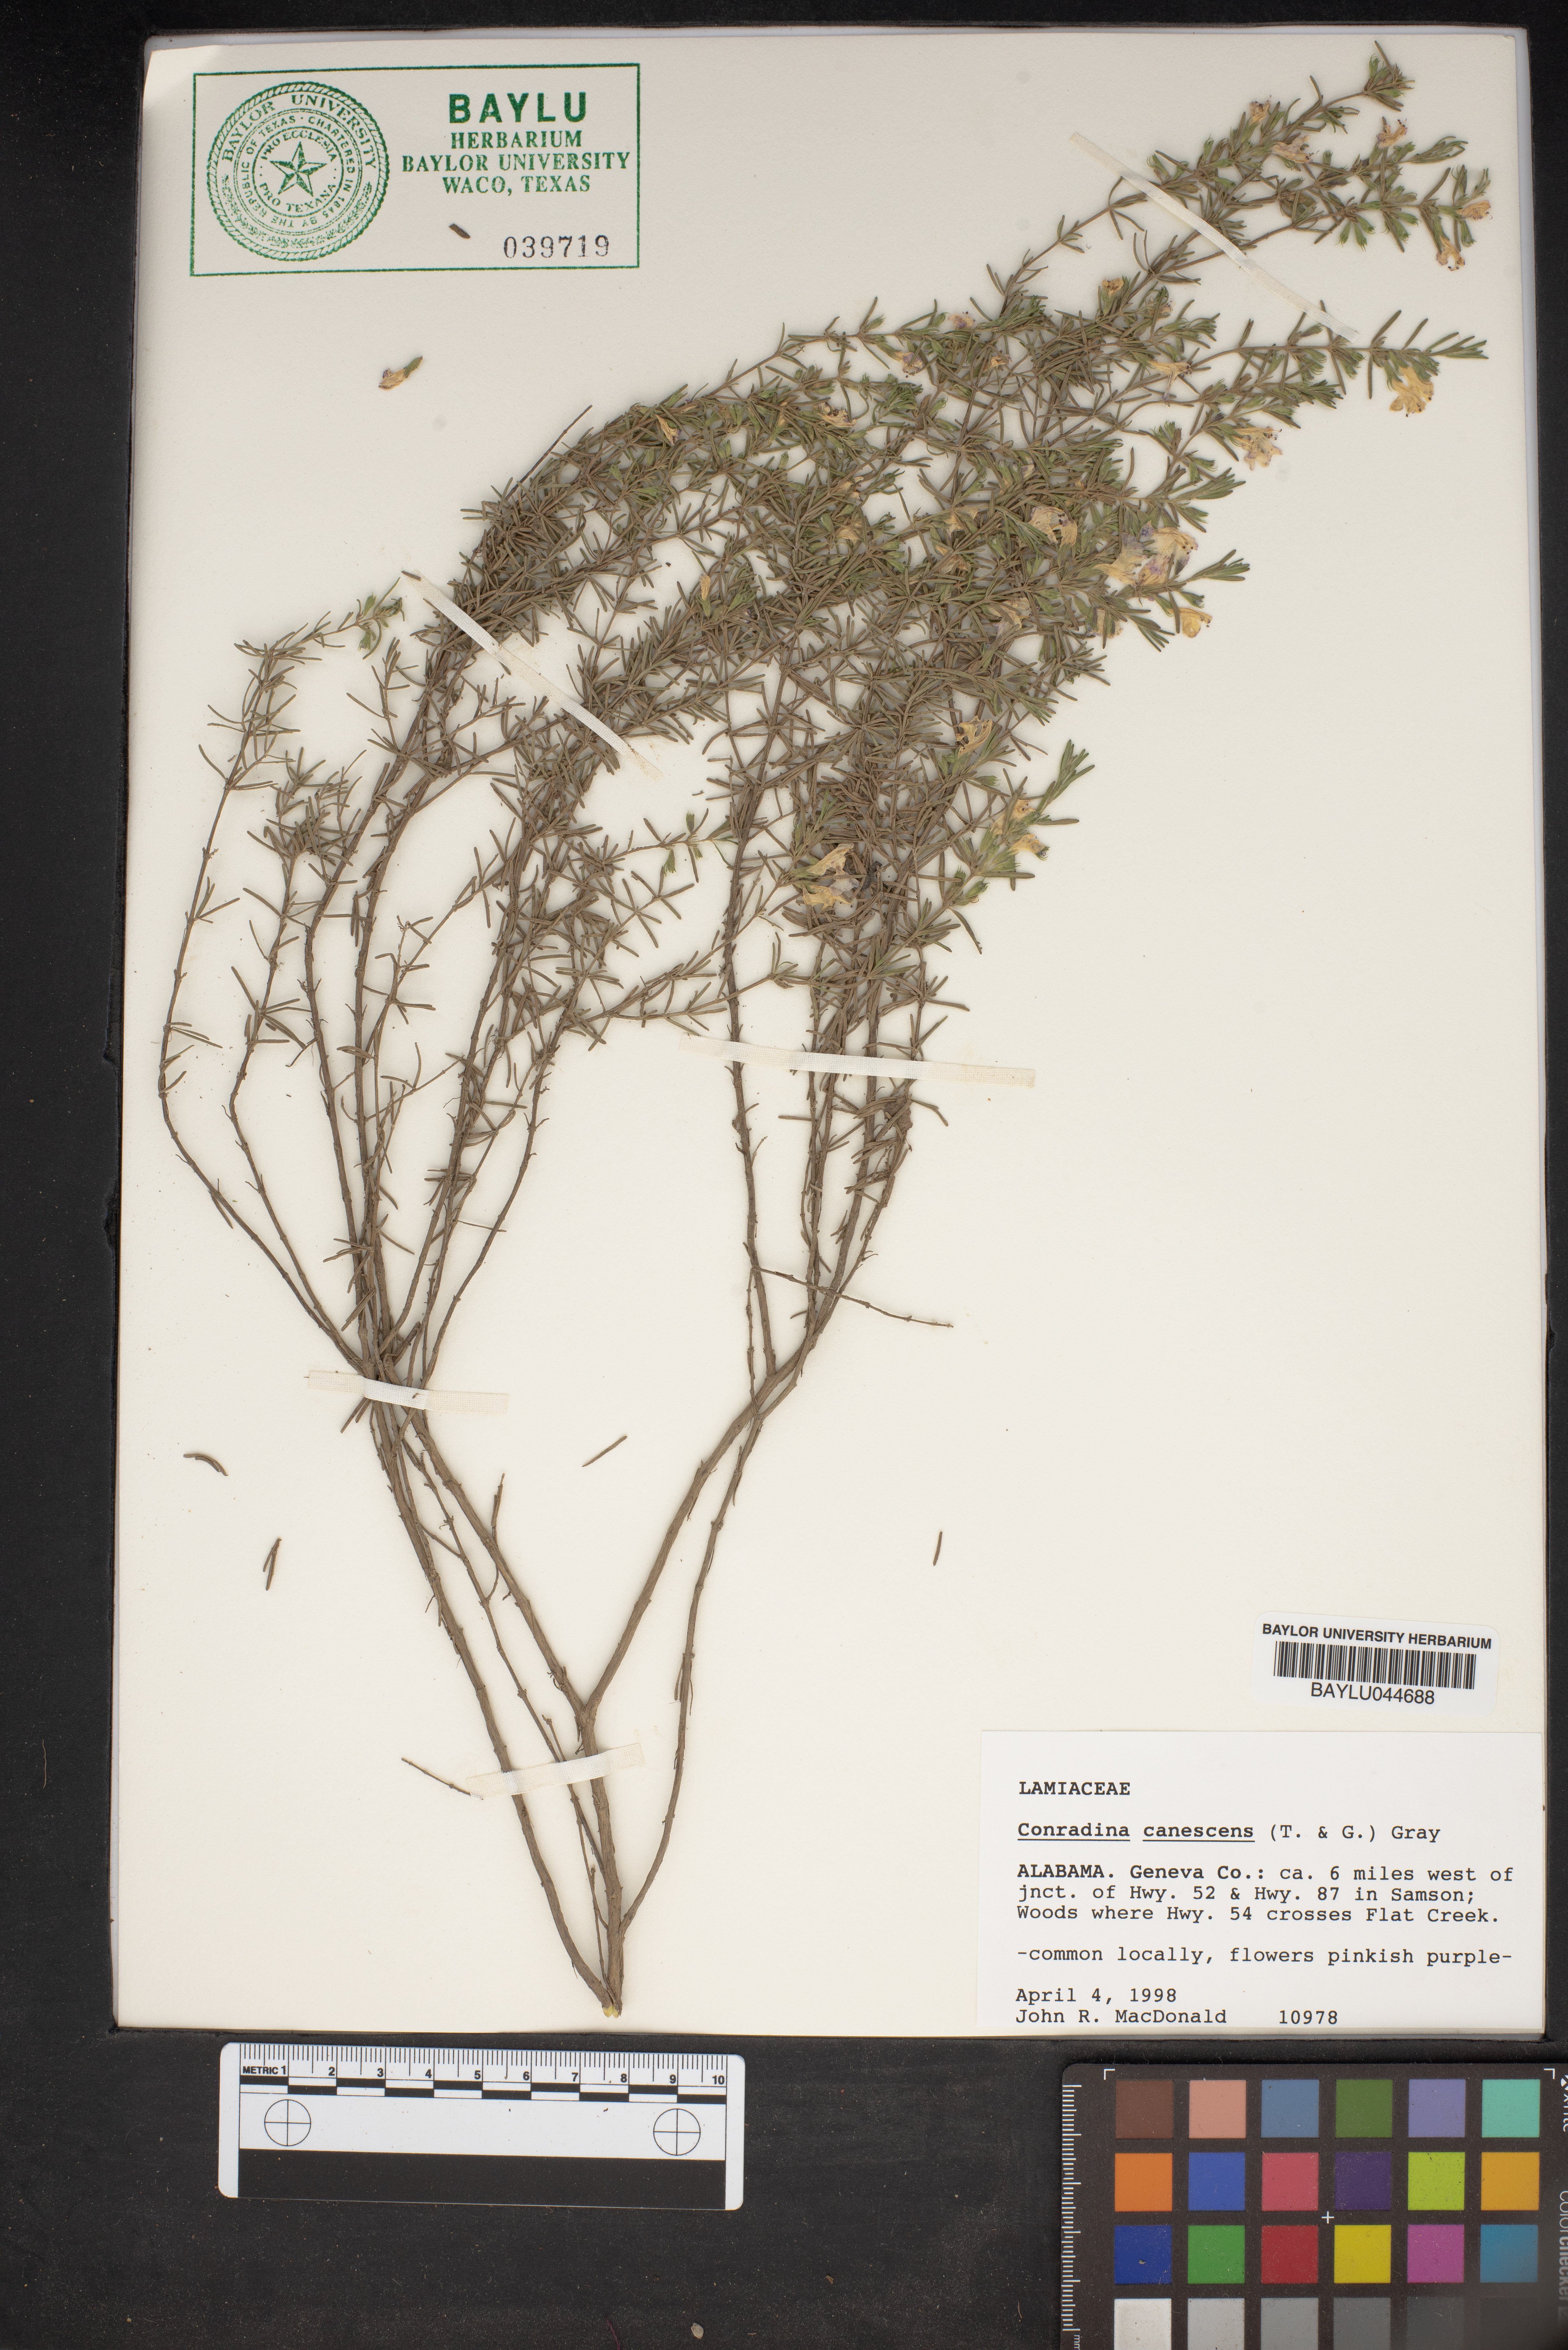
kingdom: Plantae
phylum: Tracheophyta
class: Magnoliopsida
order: Lamiales
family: Lamiaceae
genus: Conradina
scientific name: Conradina canescens
